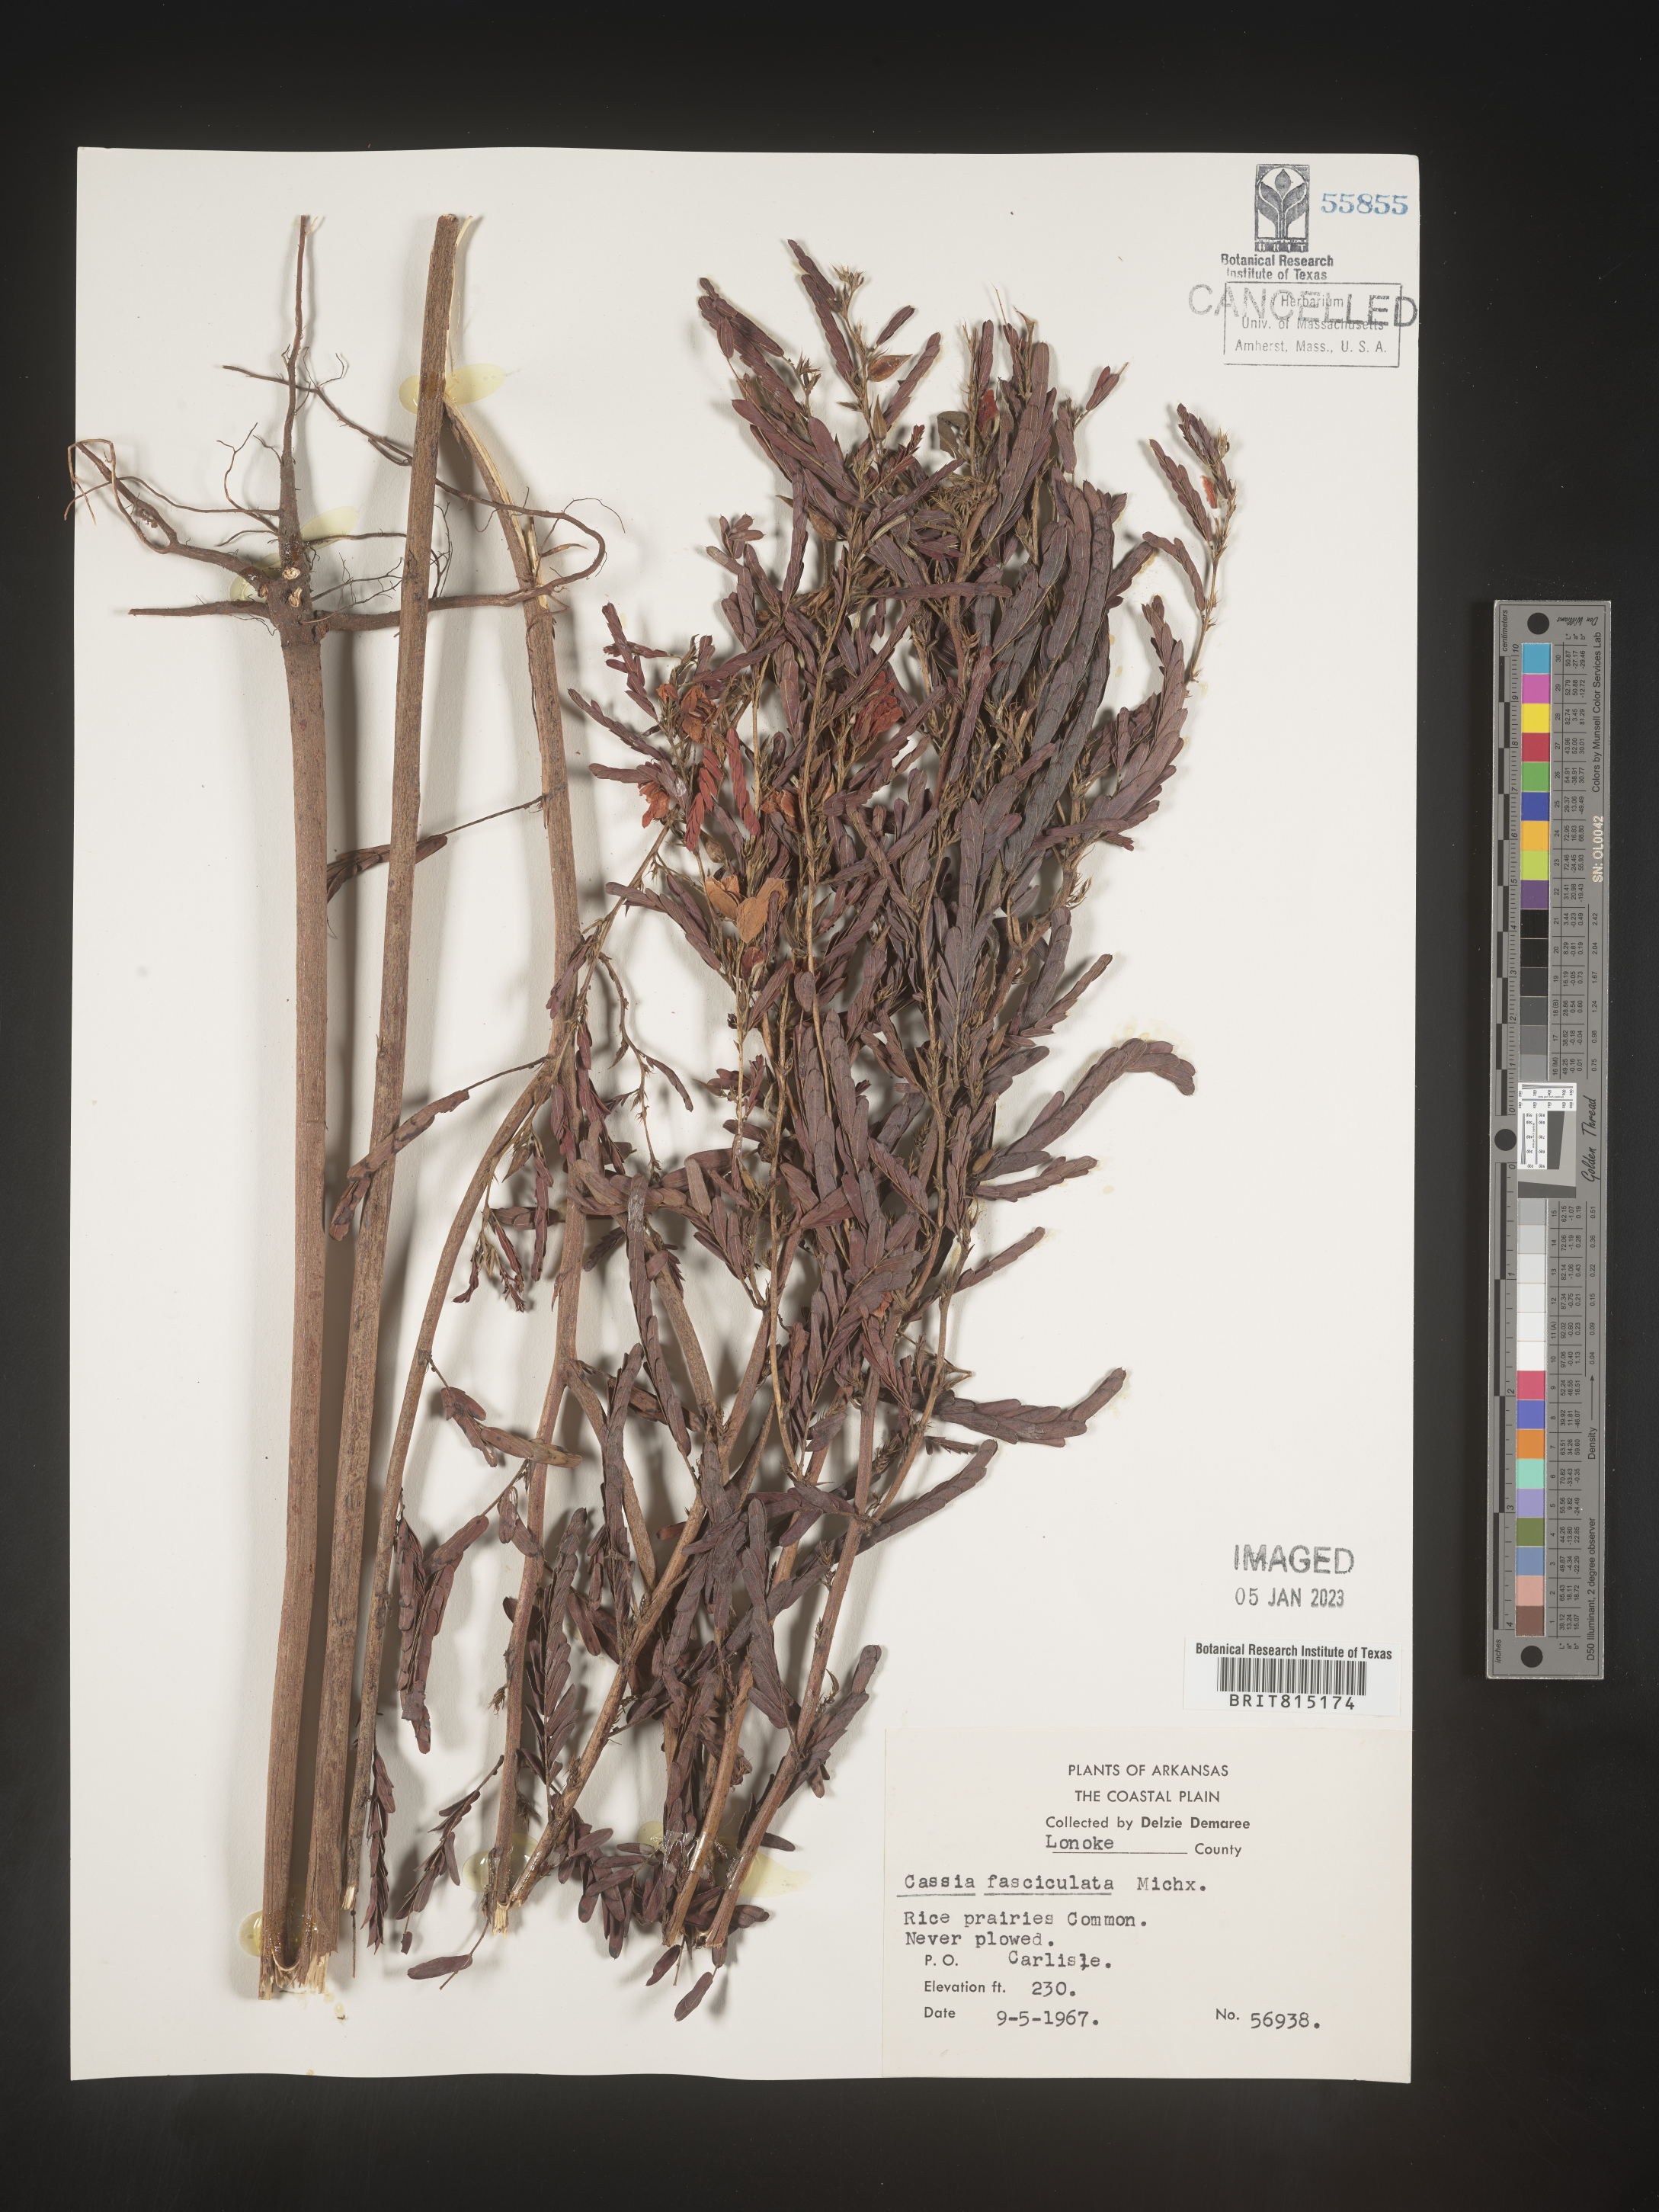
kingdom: Plantae
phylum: Tracheophyta
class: Magnoliopsida
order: Fabales
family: Fabaceae
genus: Chamaecrista
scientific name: Chamaecrista fasciculata
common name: Golden cassia
